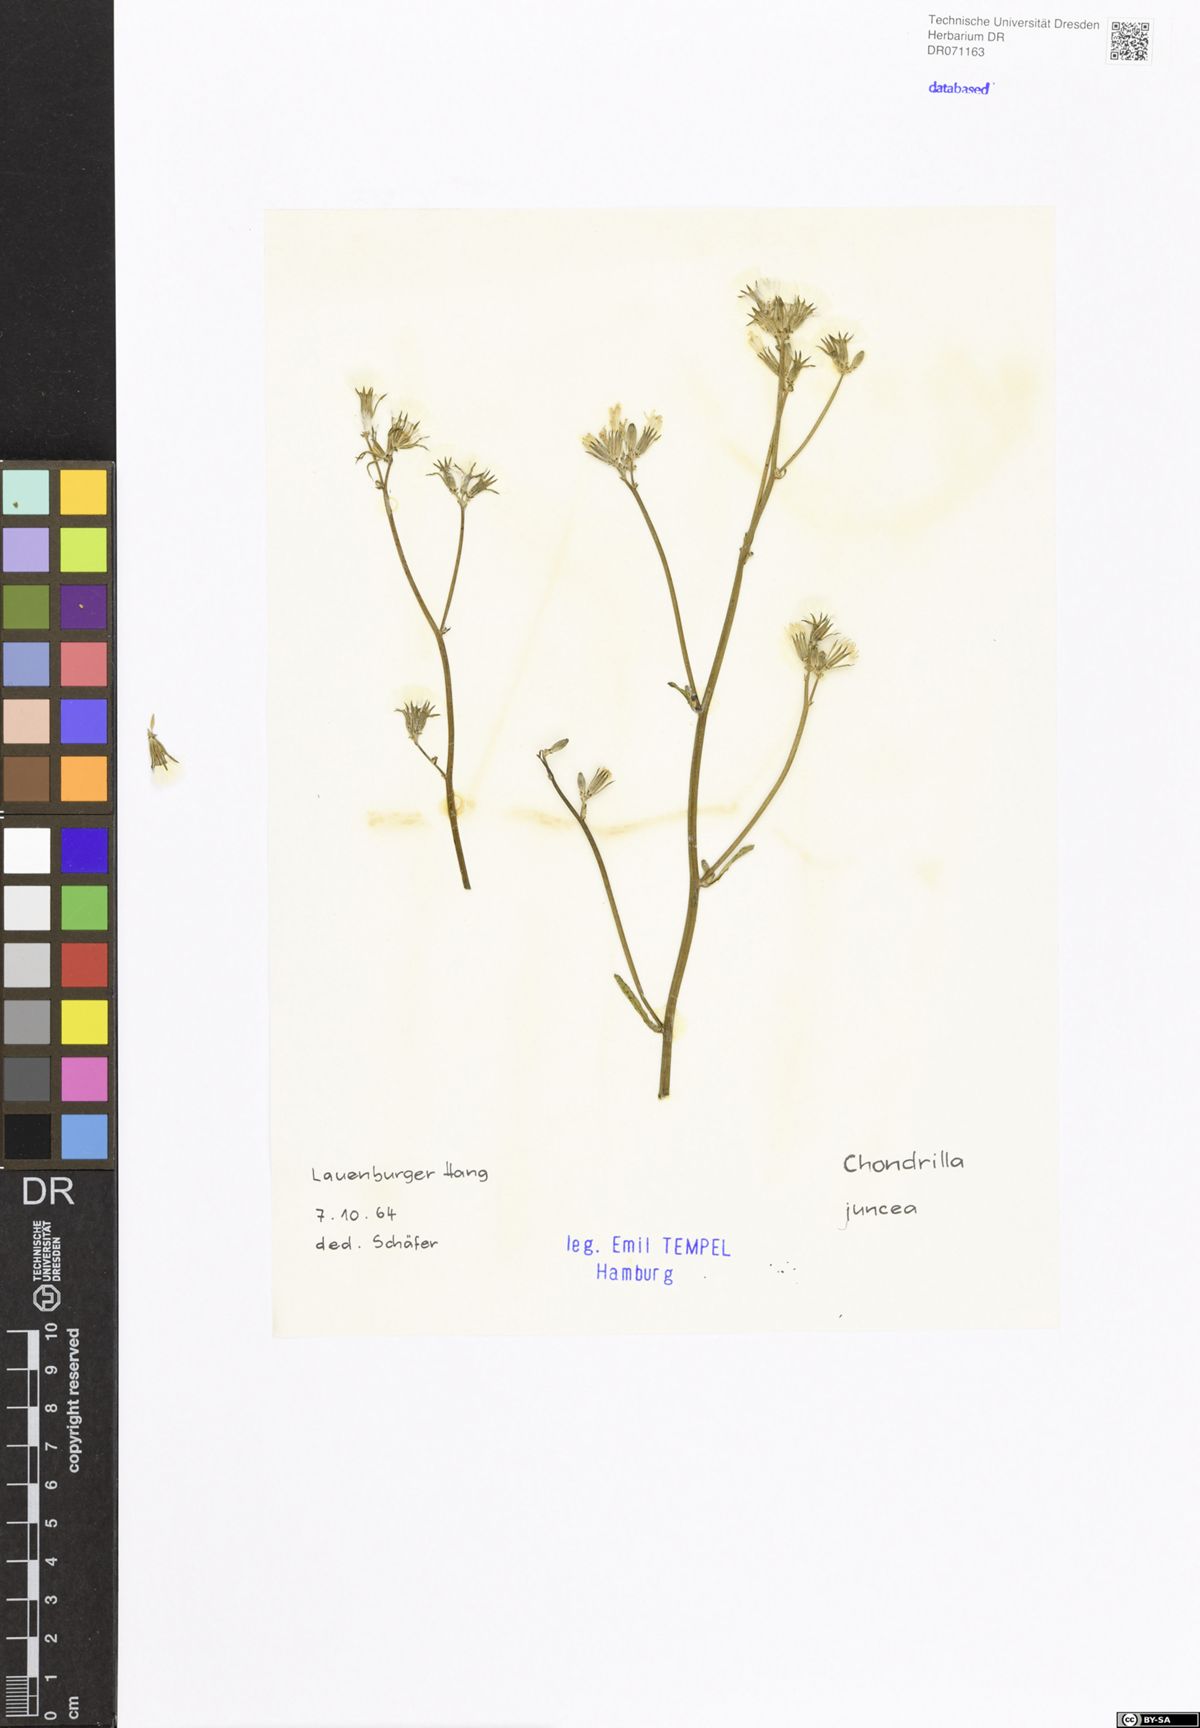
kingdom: Plantae
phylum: Tracheophyta
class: Magnoliopsida
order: Asterales
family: Asteraceae
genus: Chondrilla
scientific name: Chondrilla juncea
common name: Skeleton weed
